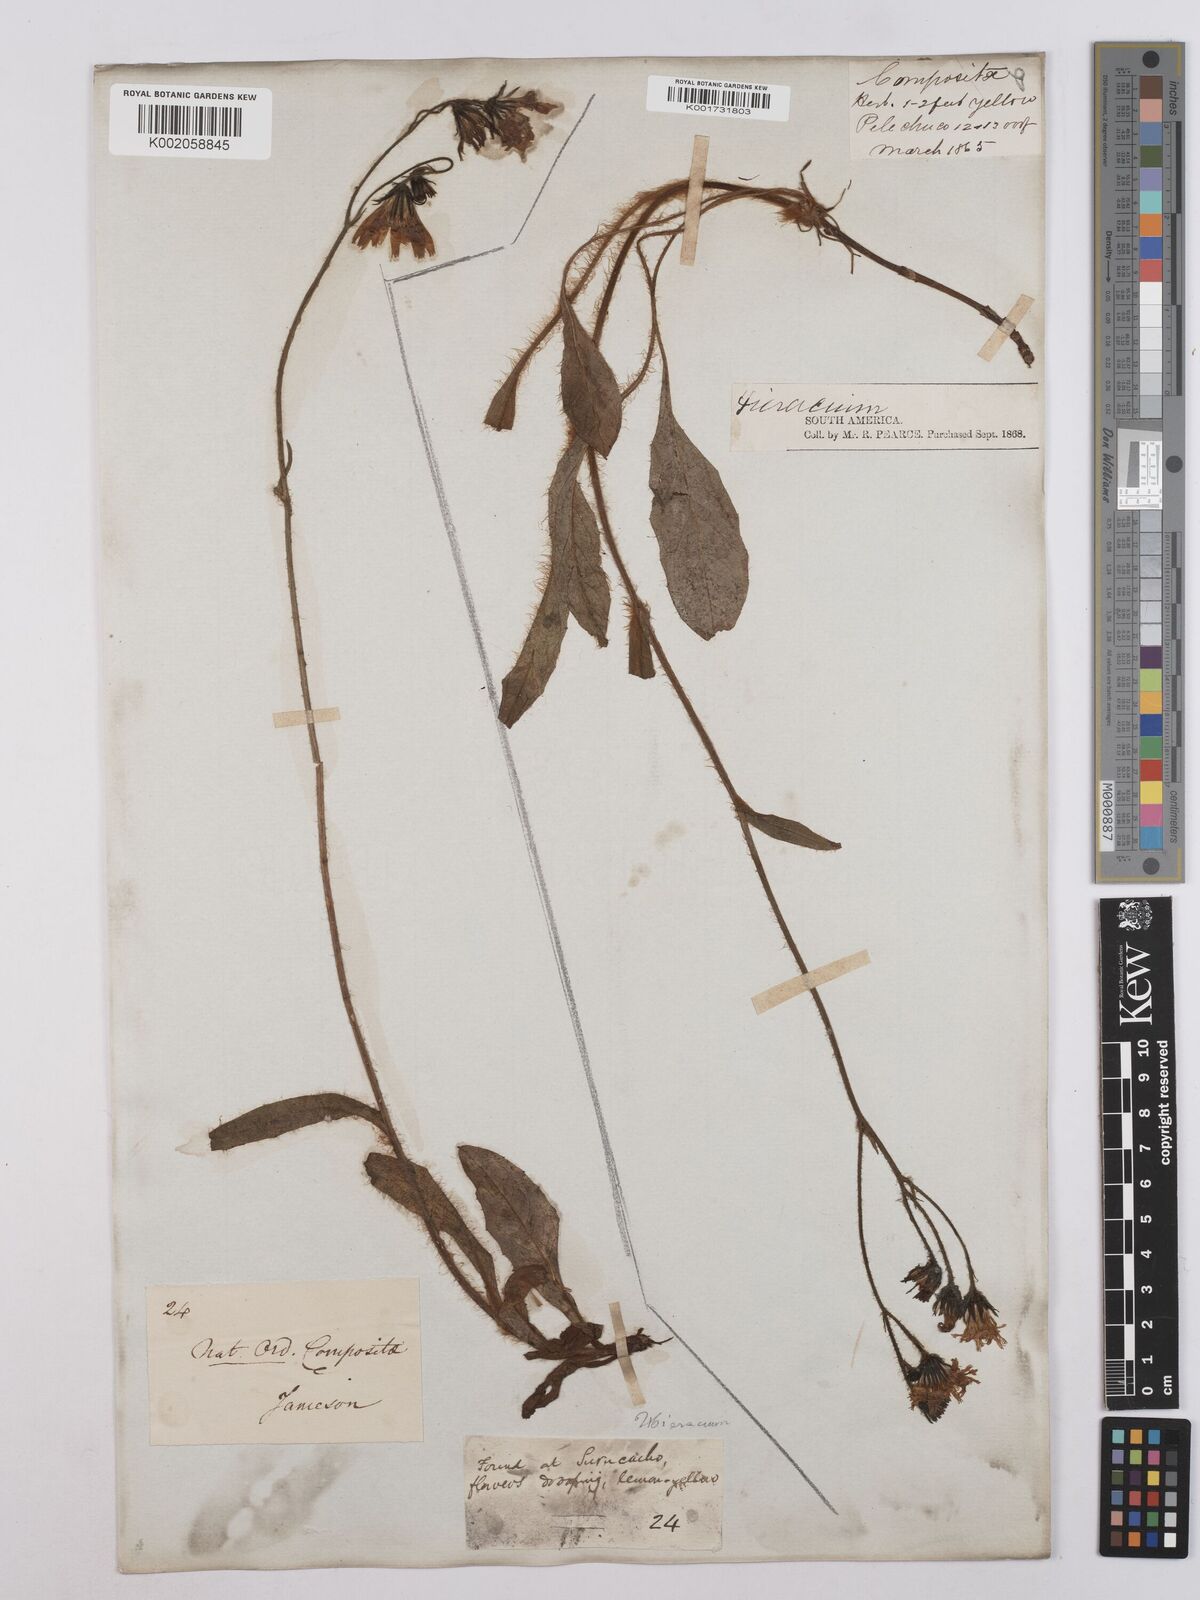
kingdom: Plantae
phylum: Tracheophyta
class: Magnoliopsida
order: Asterales
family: Asteraceae
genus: Hieracium
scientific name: Hieracium leucanthemum
